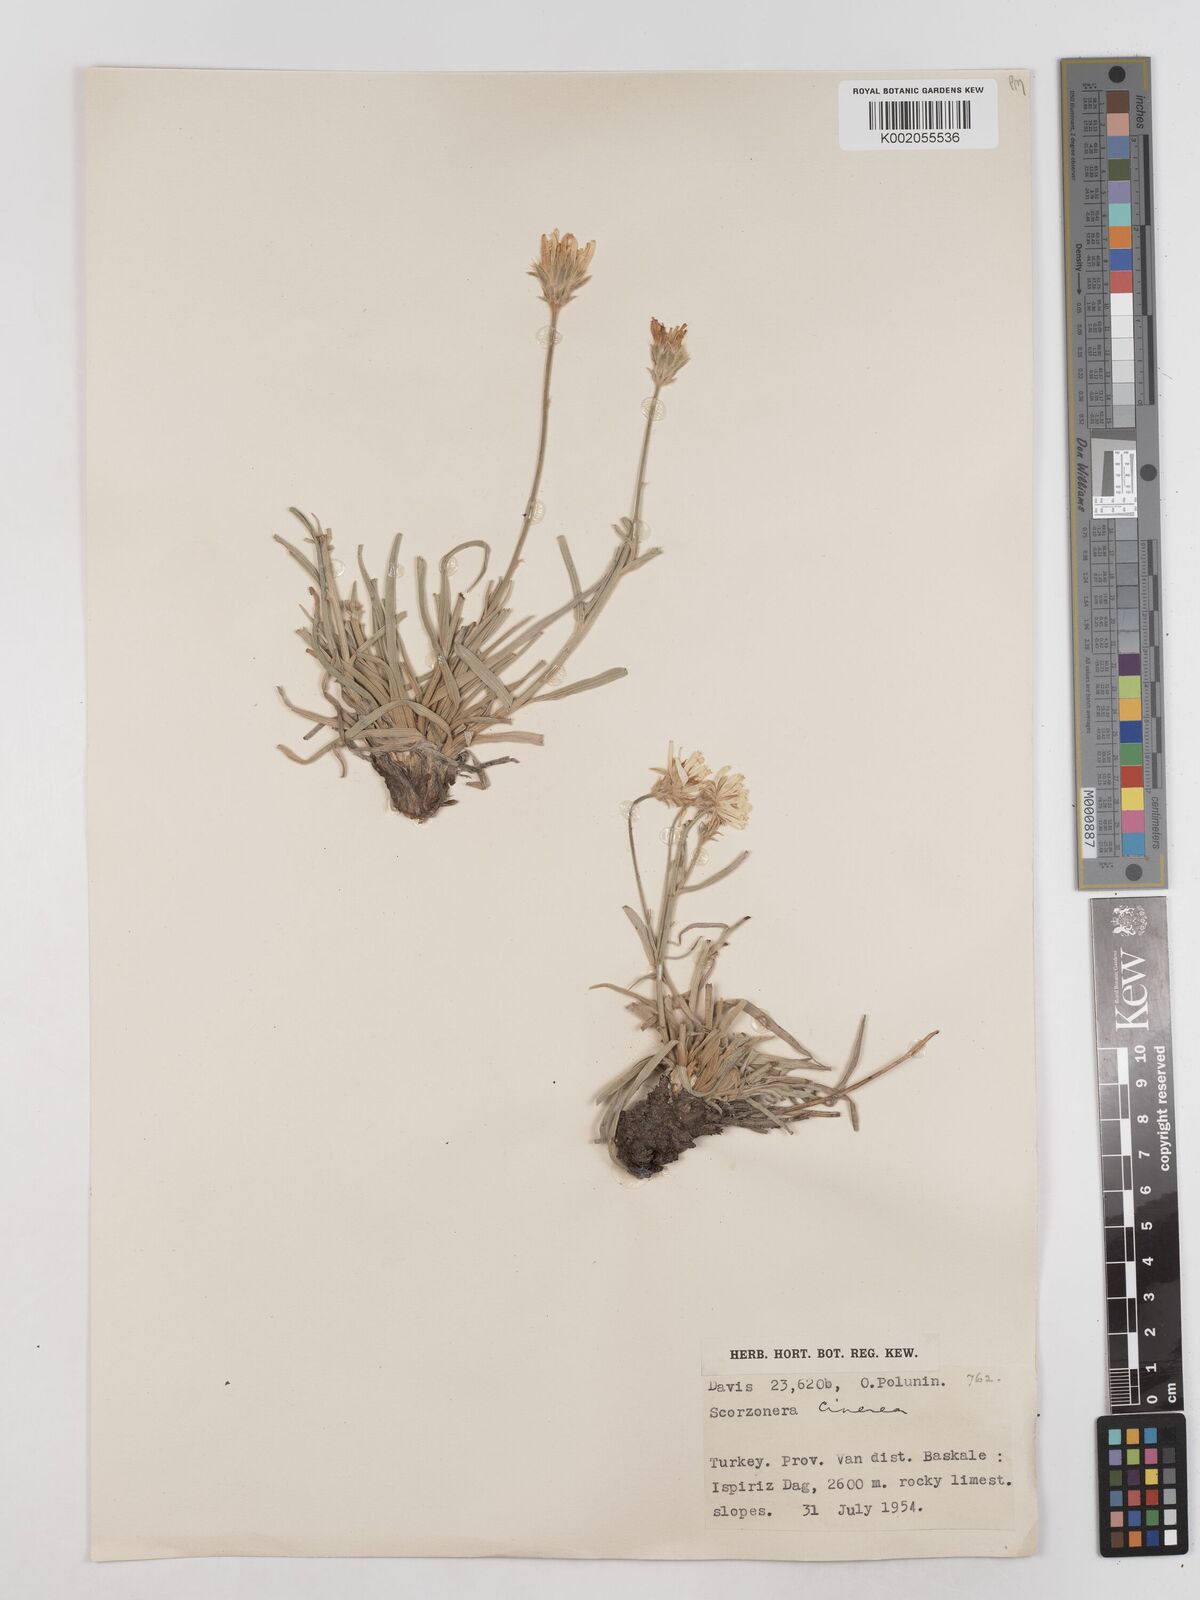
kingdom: Plantae
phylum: Tracheophyta
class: Magnoliopsida
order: Asterales
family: Asteraceae
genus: Cigdemia
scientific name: Cigdemia cinerea
